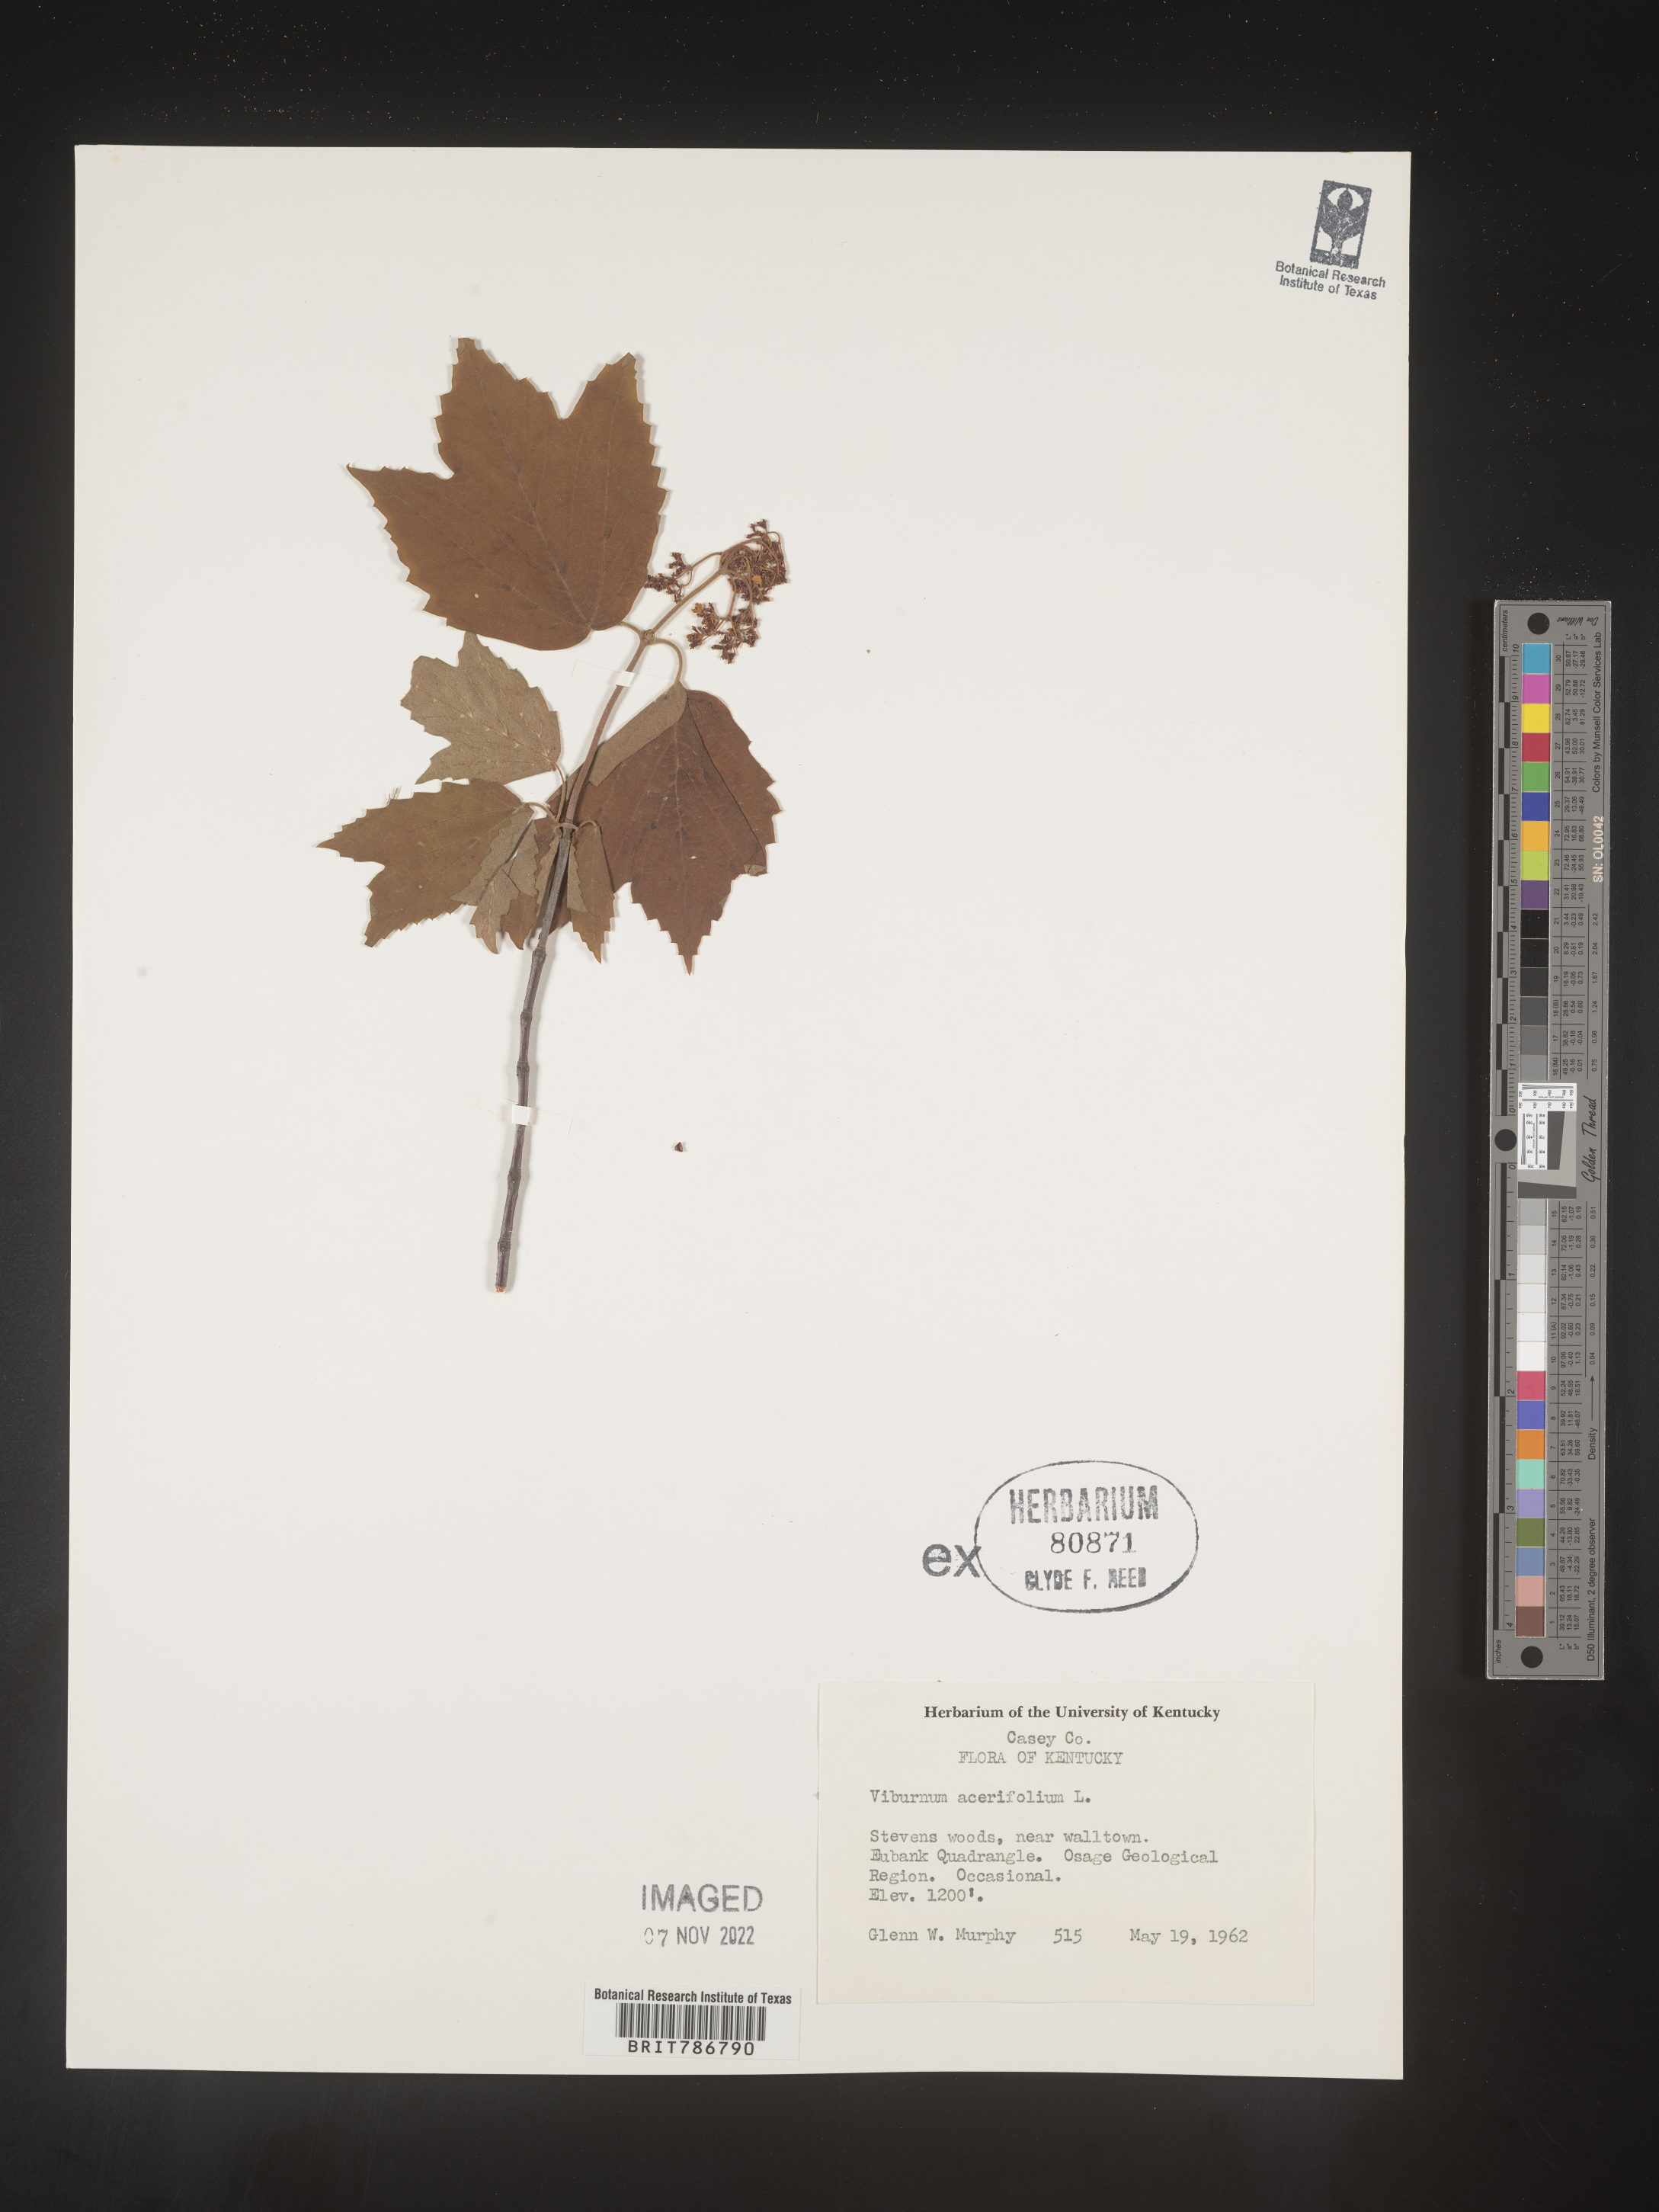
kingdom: Plantae
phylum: Tracheophyta
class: Magnoliopsida
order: Dipsacales
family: Viburnaceae
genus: Viburnum
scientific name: Viburnum acerifolium
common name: Dockmackie
